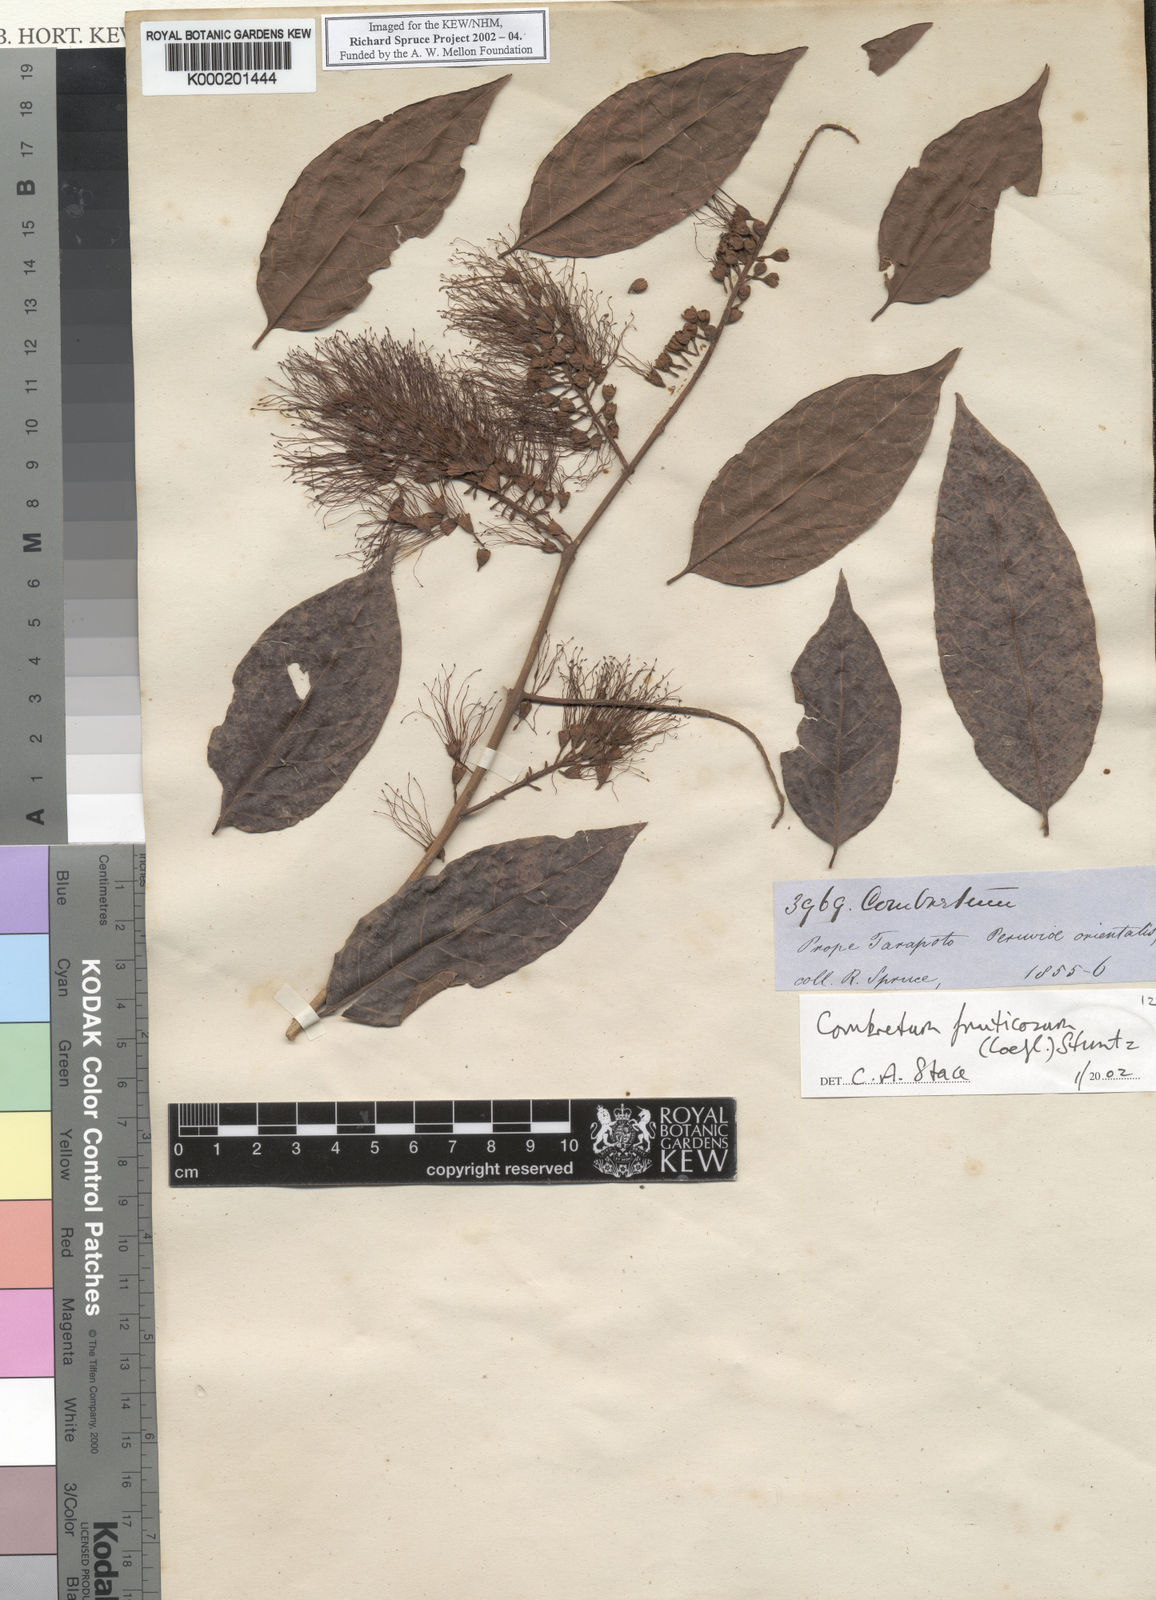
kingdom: Plantae
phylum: Tracheophyta
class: Magnoliopsida
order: Myrtales
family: Combretaceae
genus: Combretum
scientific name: Combretum fruticosum
